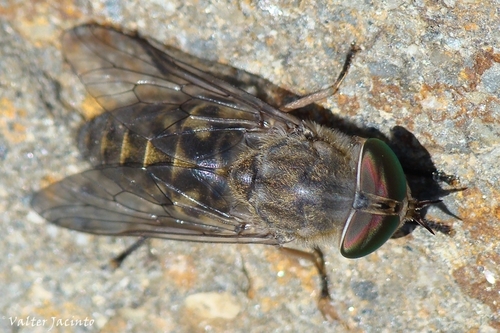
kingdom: Animalia
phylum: Arthropoda
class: Insecta
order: Diptera
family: Tabanidae
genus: Tabanus
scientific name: Tabanus bromius
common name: Band-eyed brown horsefly
